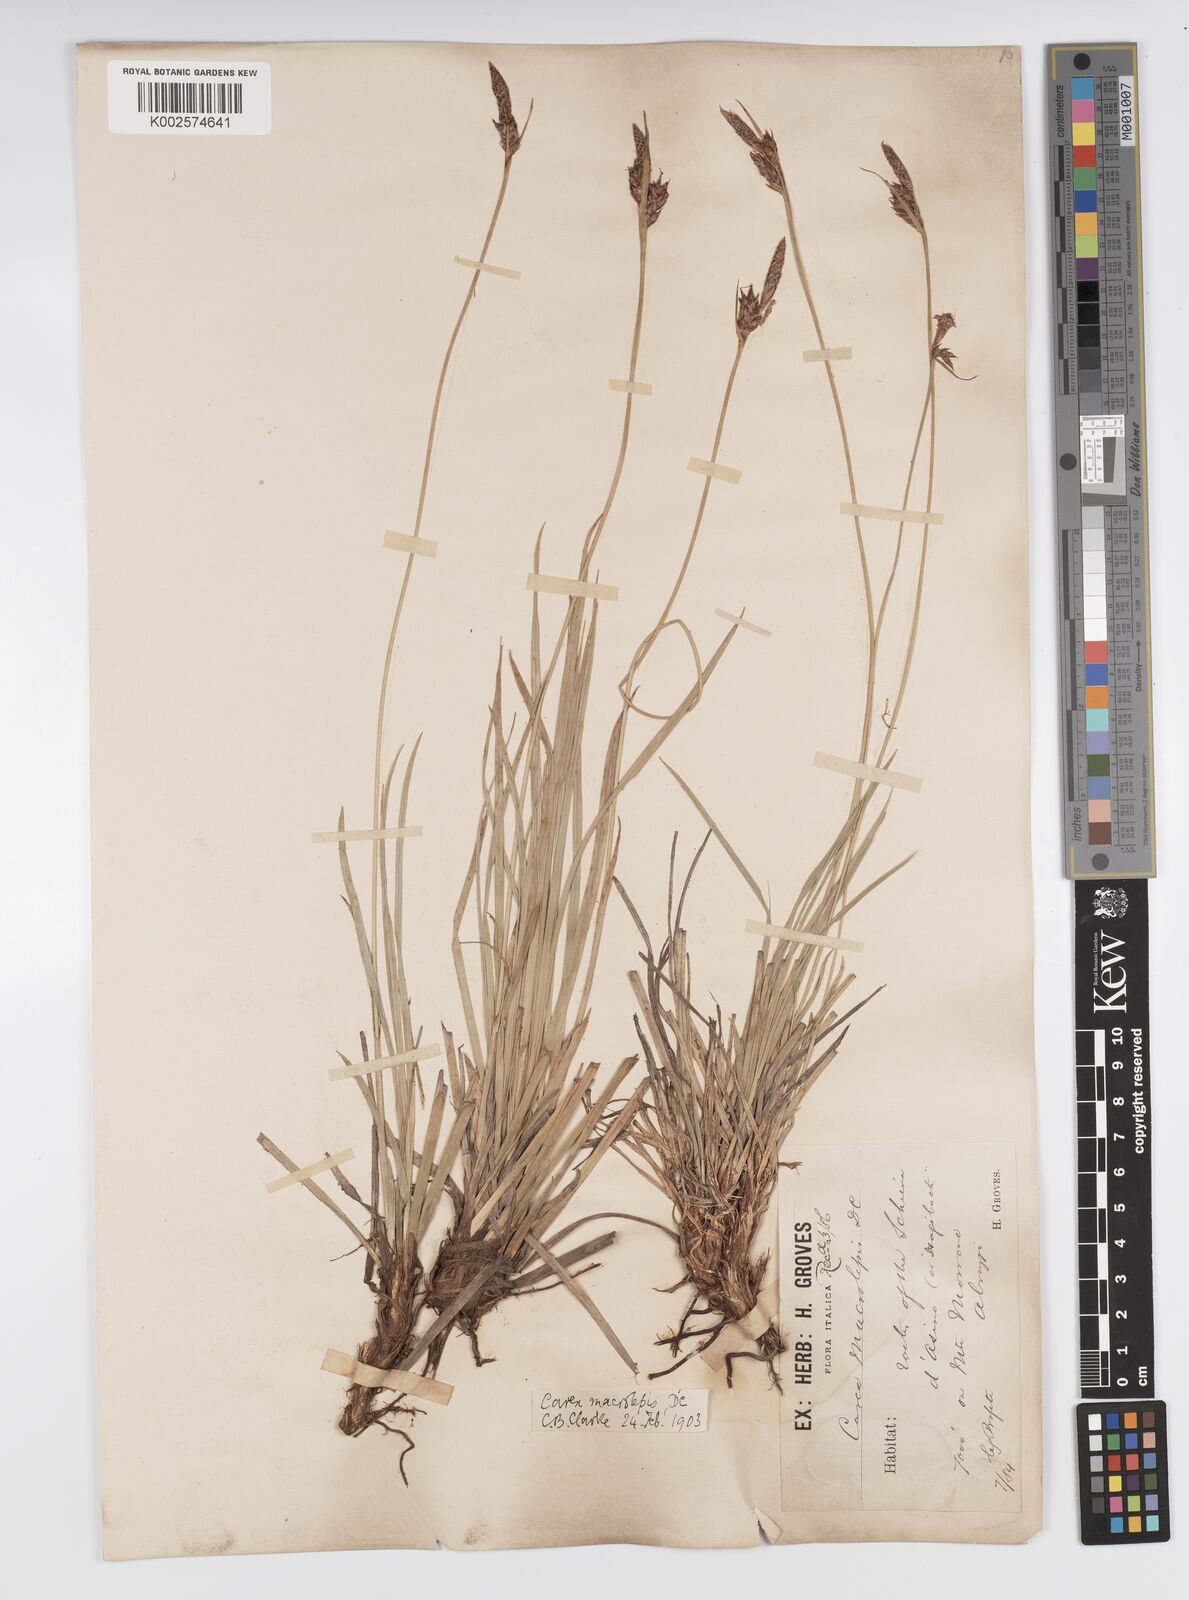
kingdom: Plantae
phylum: Tracheophyta
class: Liliopsida
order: Poales
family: Cyperaceae
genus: Carex
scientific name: Carex macrolepis
